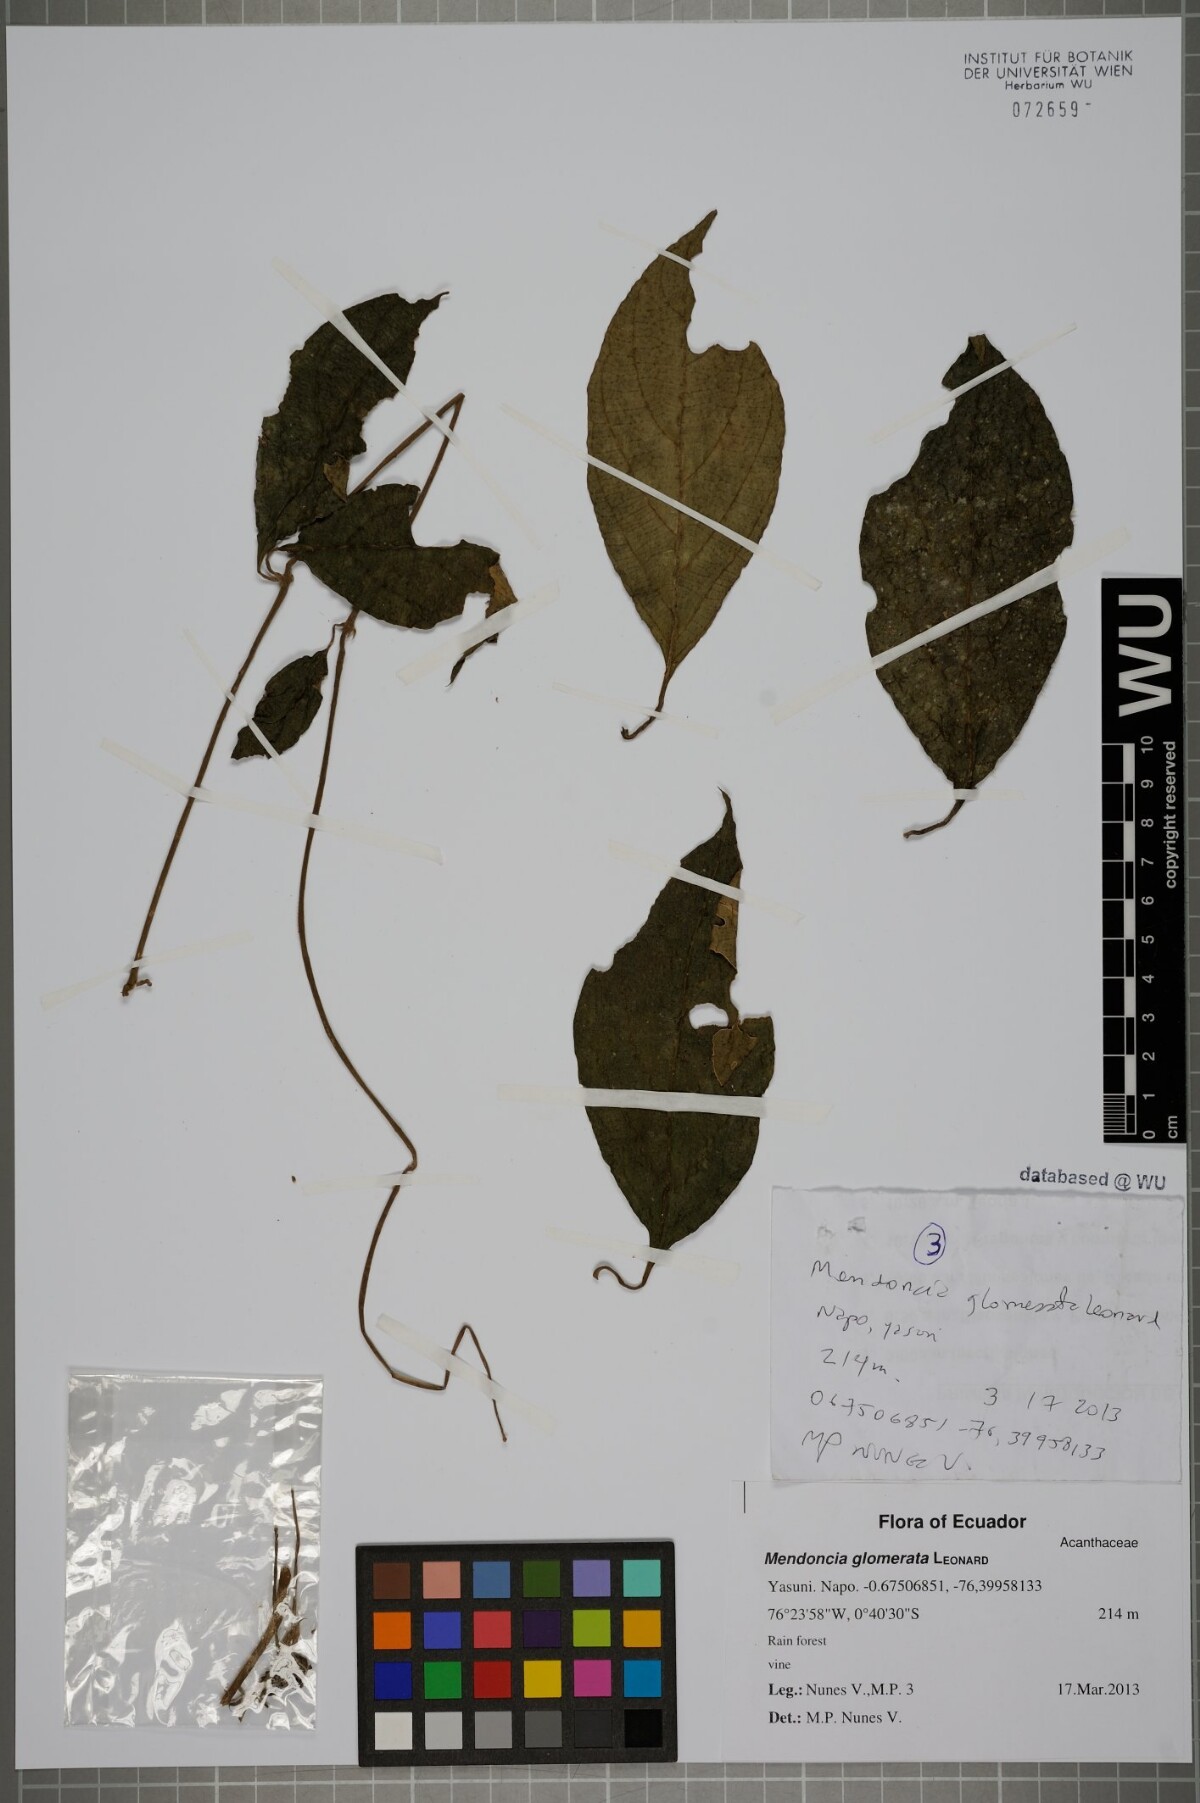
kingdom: Plantae
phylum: Tracheophyta
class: Magnoliopsida
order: Lamiales
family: Acanthaceae
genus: Mendoncia
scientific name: Mendoncia
